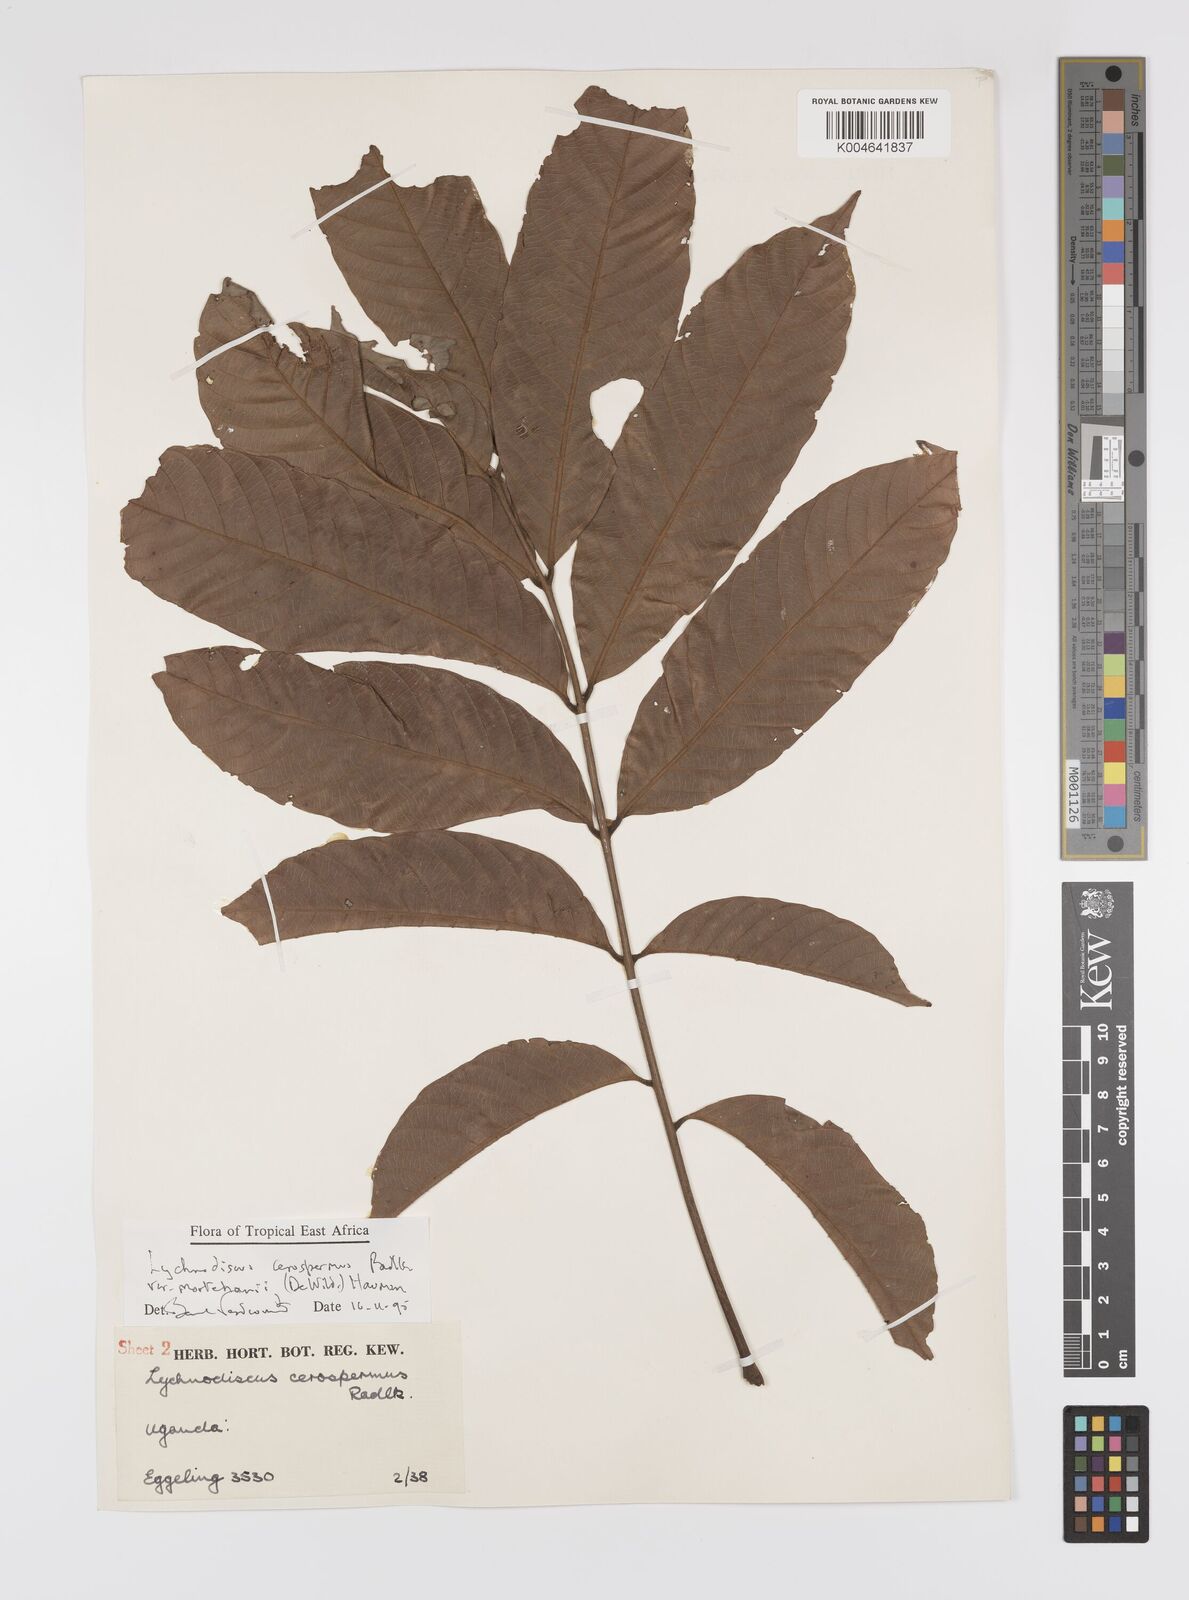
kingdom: Plantae
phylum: Tracheophyta
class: Magnoliopsida
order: Sapindales
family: Sapindaceae
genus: Lychnodiscus
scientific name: Lychnodiscus cerospermus
